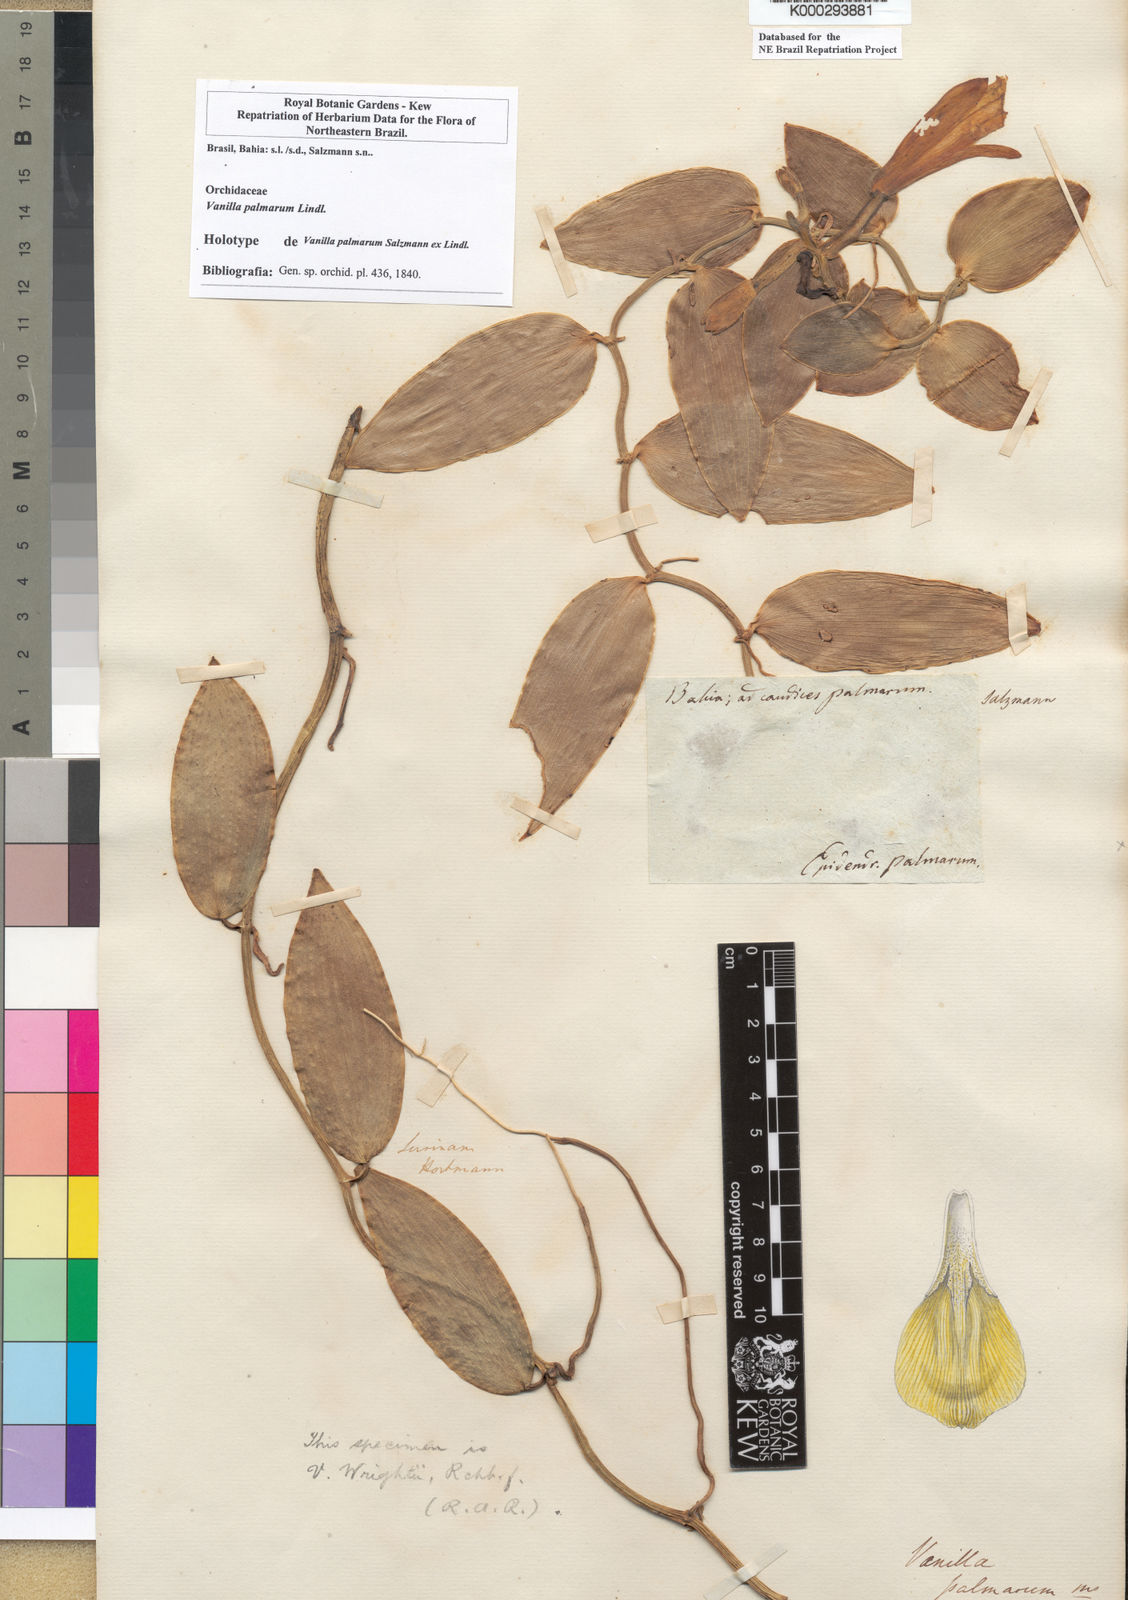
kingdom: Plantae
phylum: Tracheophyta
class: Liliopsida
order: Asparagales
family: Orchidaceae
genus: Vanilla
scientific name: Vanilla palmarum
